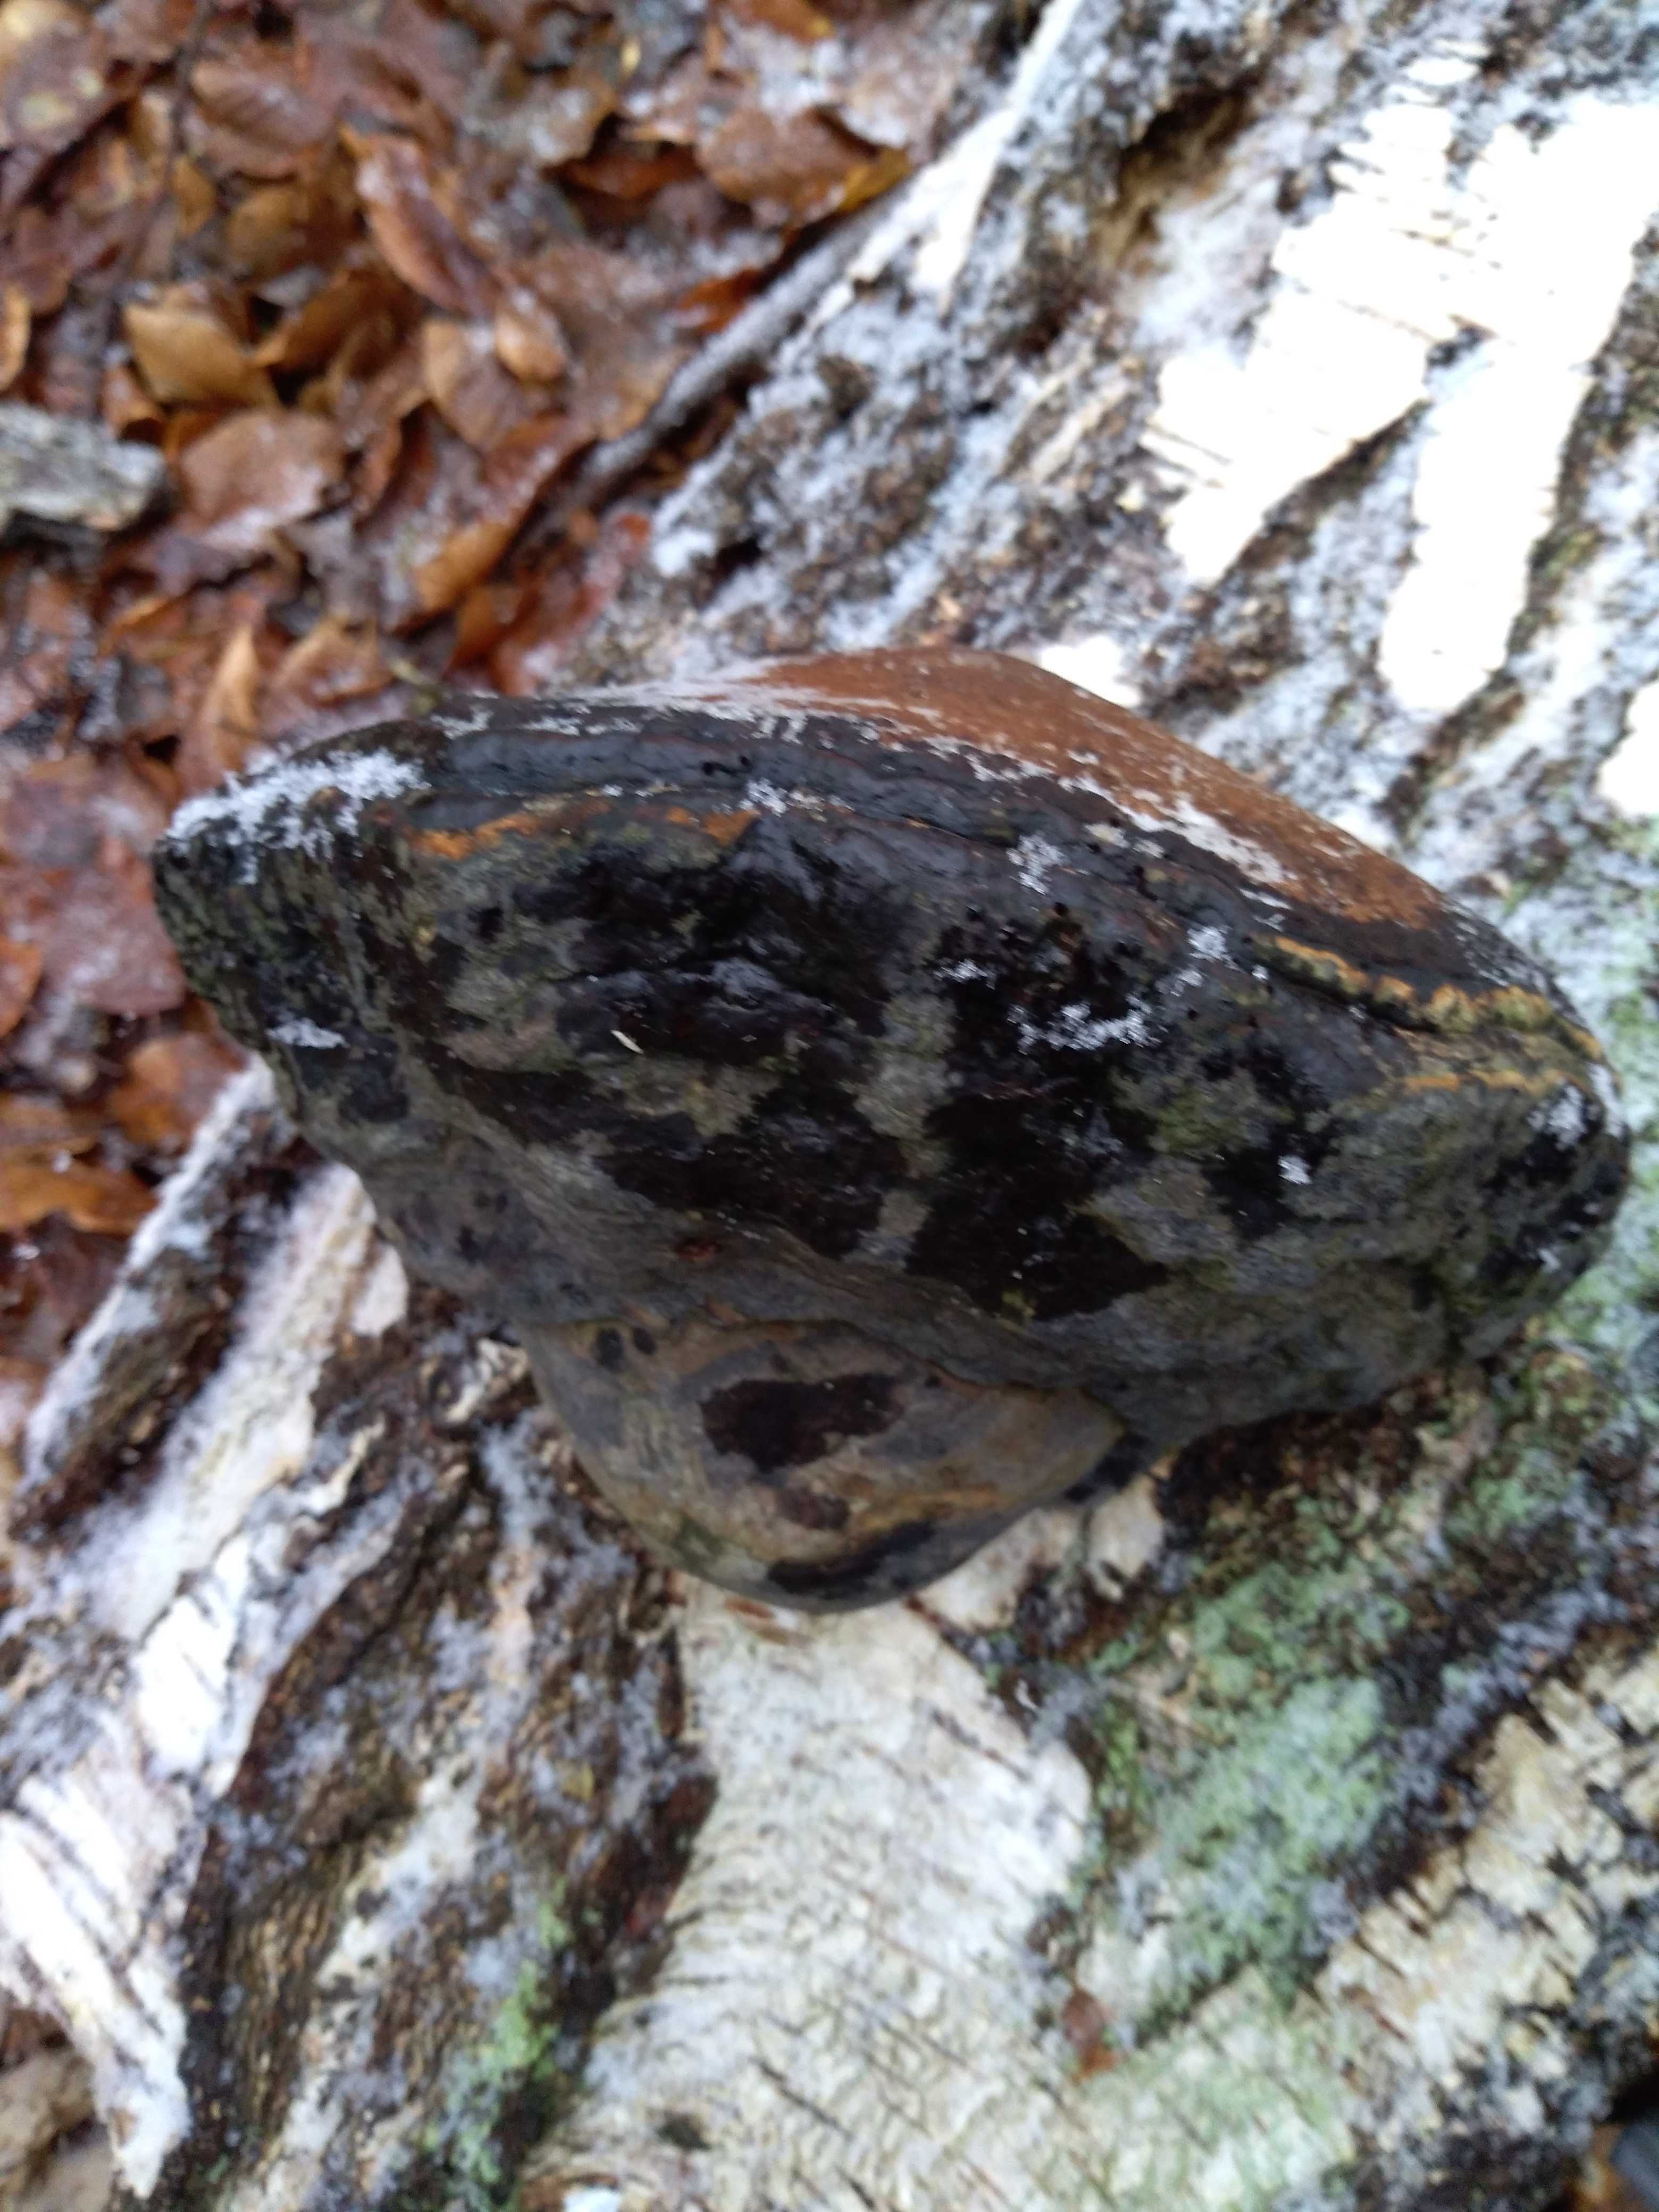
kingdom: Fungi
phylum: Basidiomycota
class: Agaricomycetes
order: Polyporales
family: Polyporaceae
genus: Fomes
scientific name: Fomes fomentarius
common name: tøndersvamp
